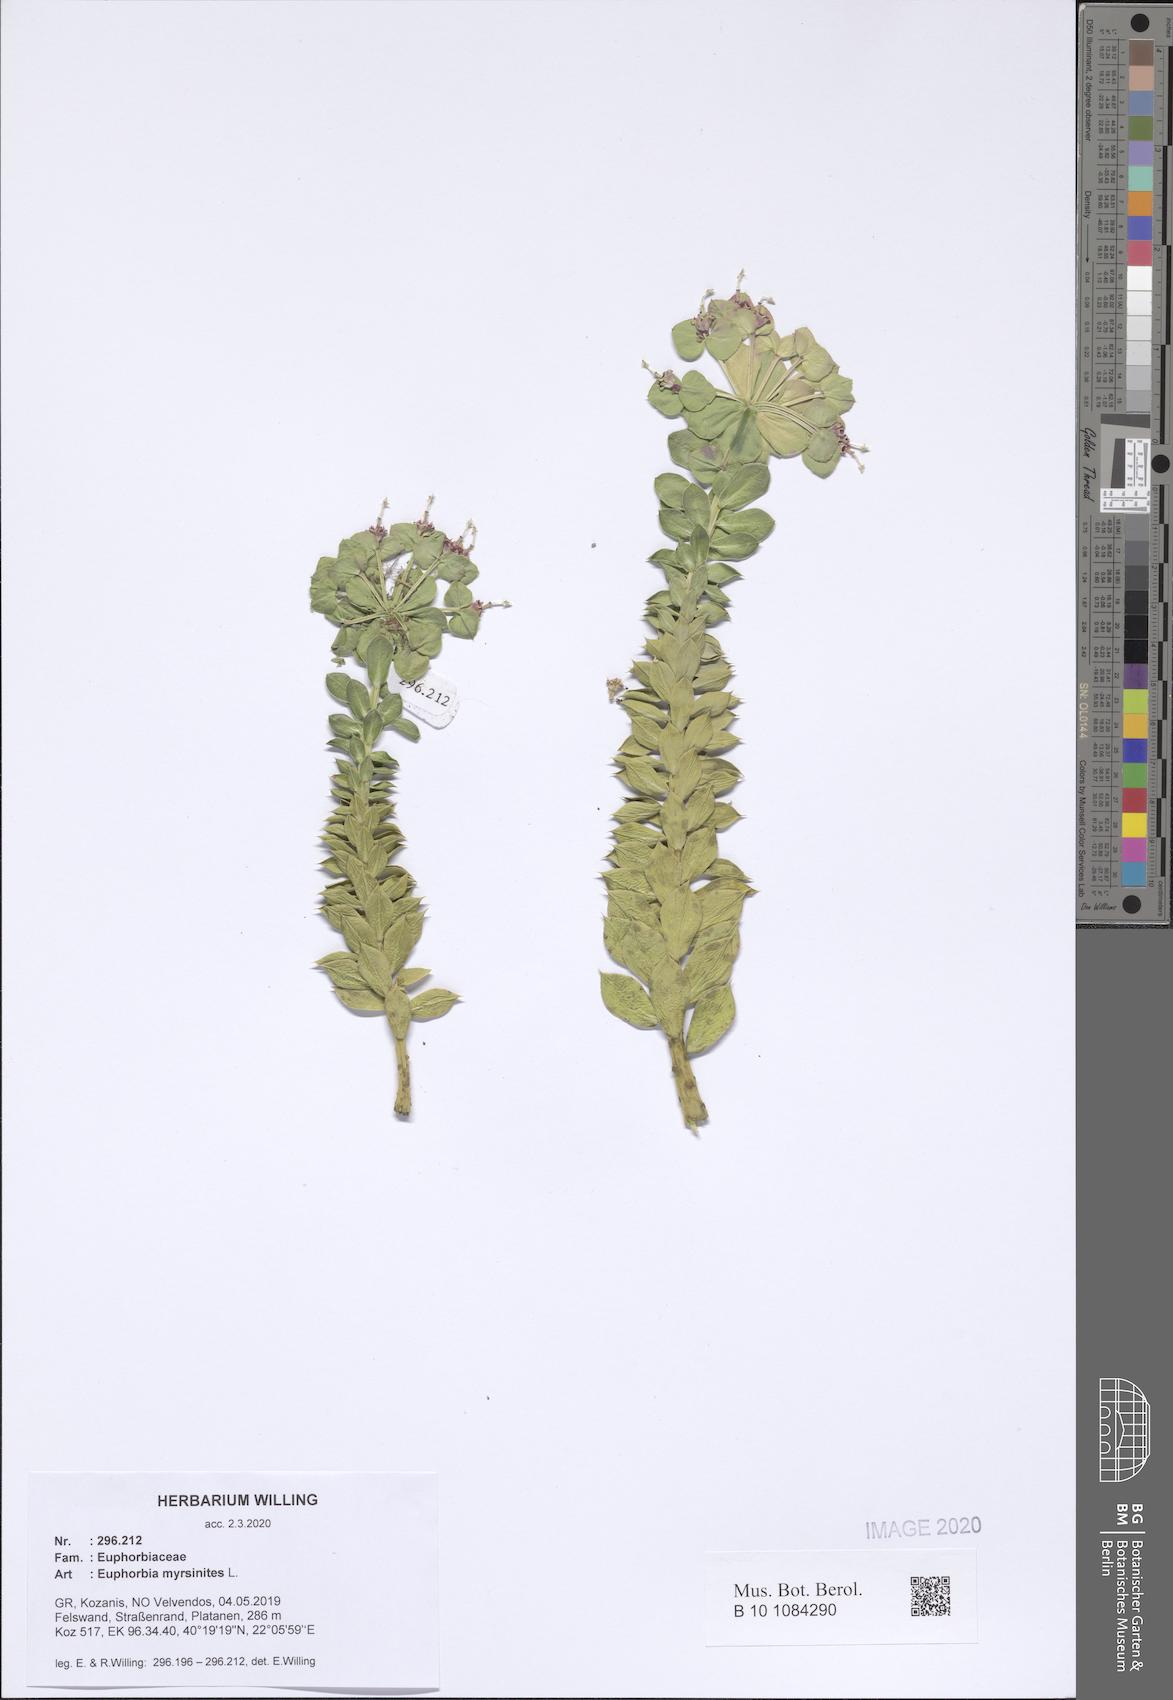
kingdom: Plantae
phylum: Tracheophyta
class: Magnoliopsida
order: Malpighiales
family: Euphorbiaceae
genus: Euphorbia
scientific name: Euphorbia myrsinites
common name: Myrtle spurge
